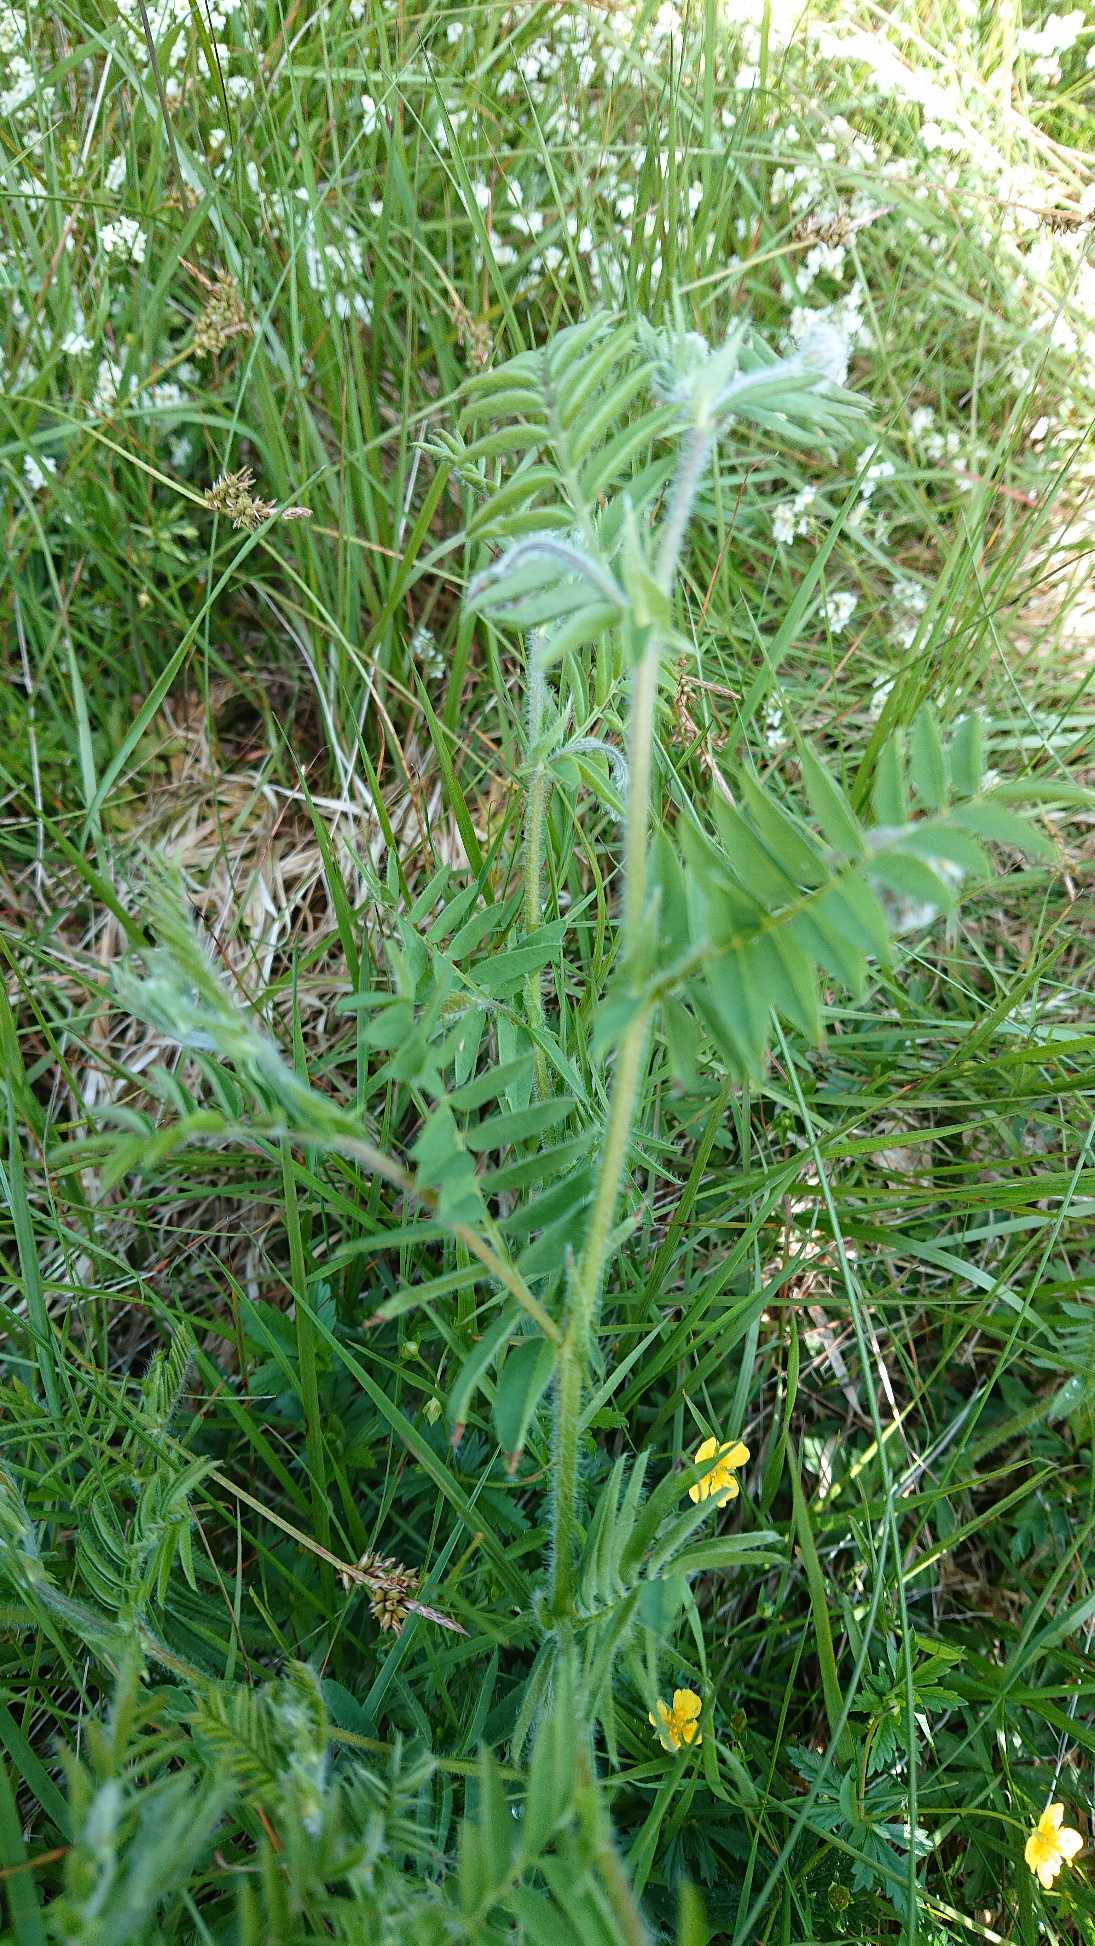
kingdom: Plantae
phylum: Tracheophyta
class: Magnoliopsida
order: Fabales
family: Fabaceae
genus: Vicia
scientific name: Vicia orobus
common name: Lyng-vikke
